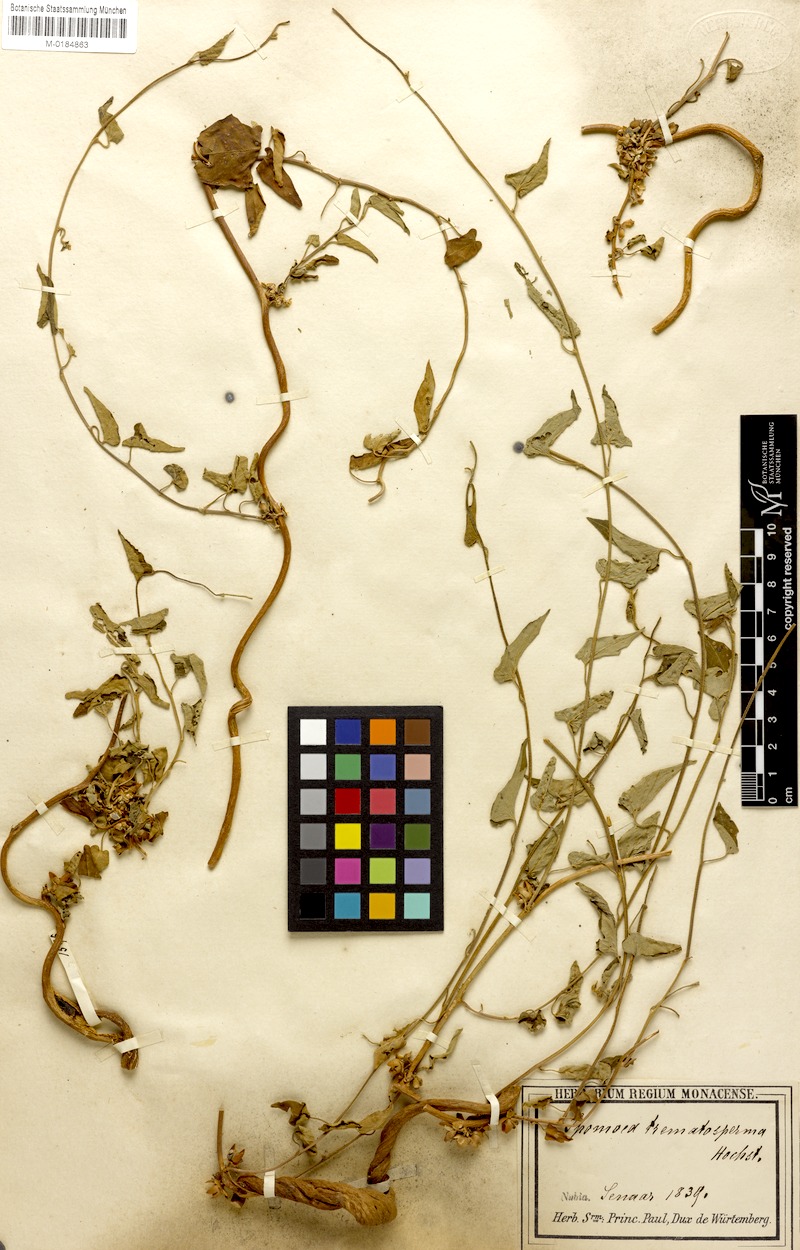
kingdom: Plantae
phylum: Tracheophyta
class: Magnoliopsida
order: Solanales
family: Convolvulaceae
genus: Ipomoea
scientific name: Ipomoea purpurea
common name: Common morning-glory
